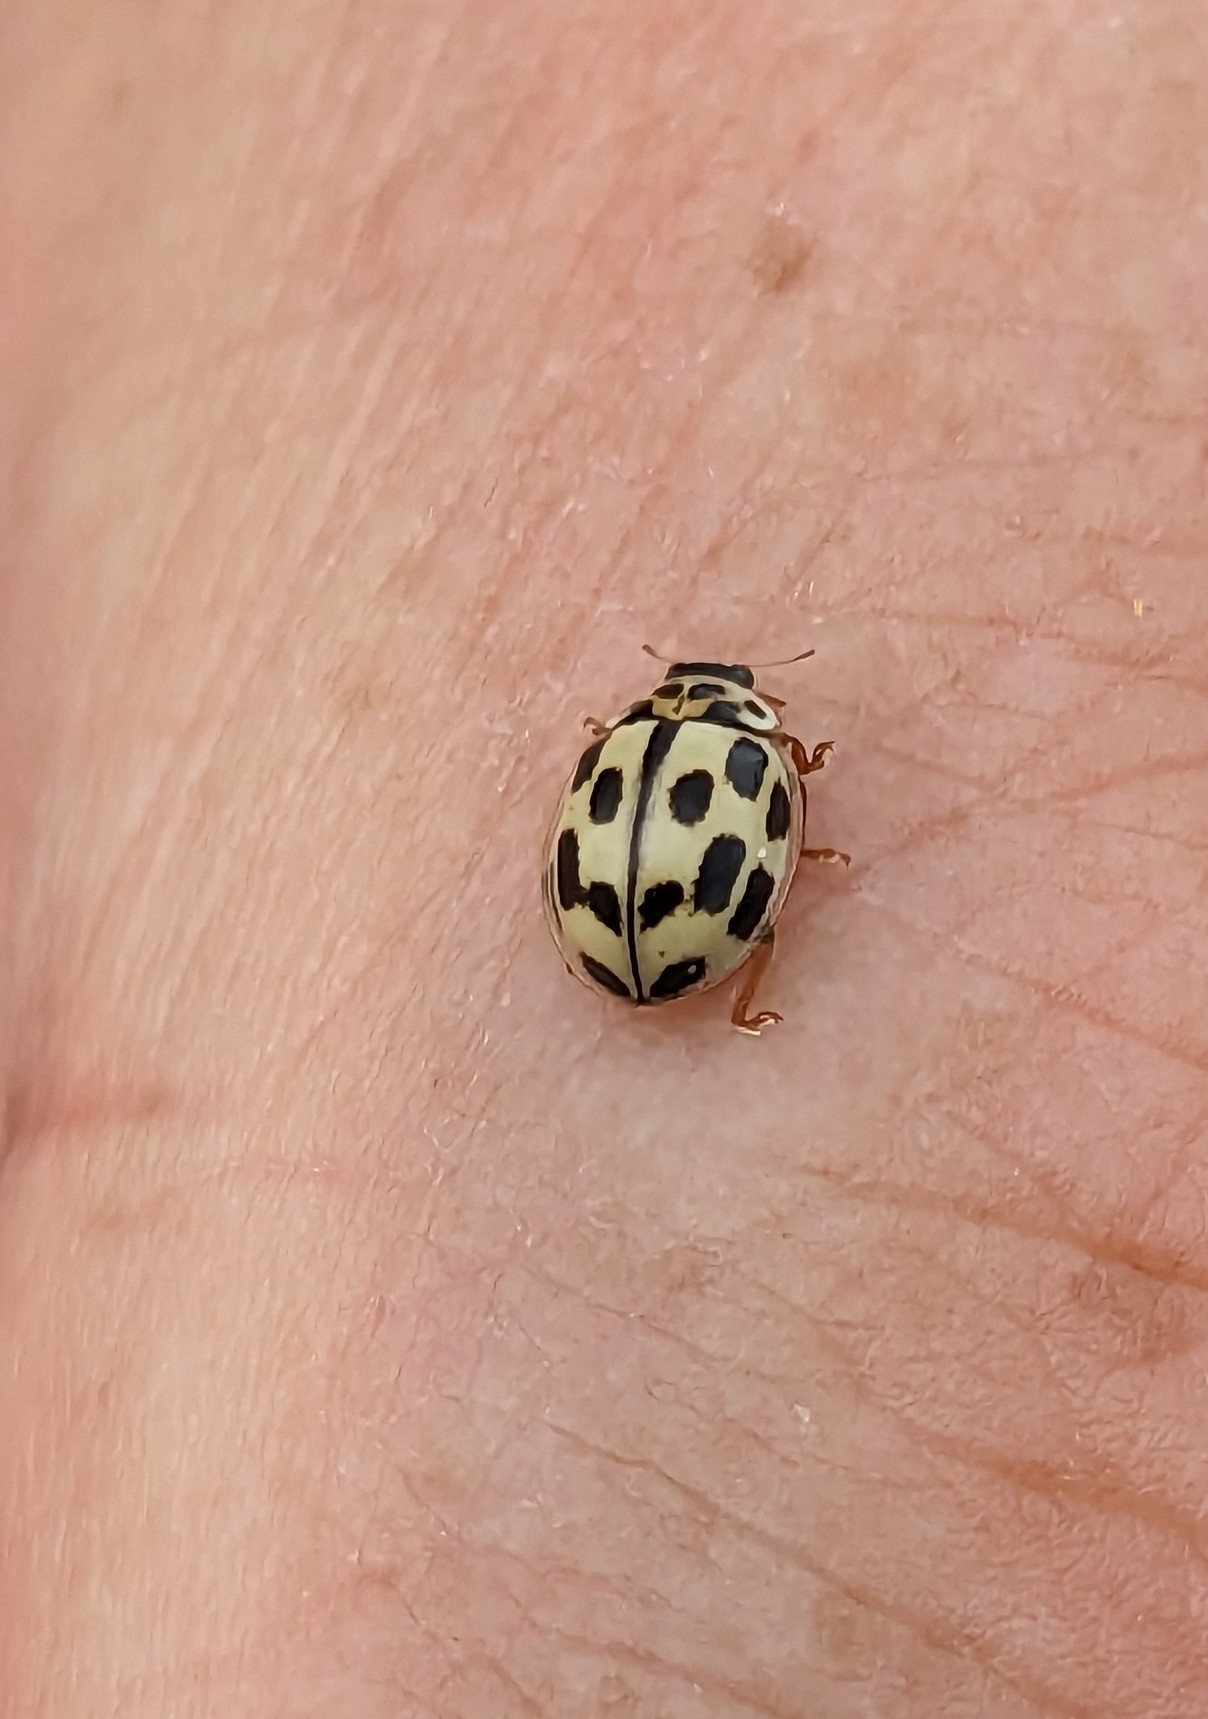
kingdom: Animalia
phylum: Arthropoda
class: Insecta
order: Coleoptera
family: Coccinellidae
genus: Propylaea
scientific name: Propylaea quatuordecimpunctata
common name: Skakbræt
